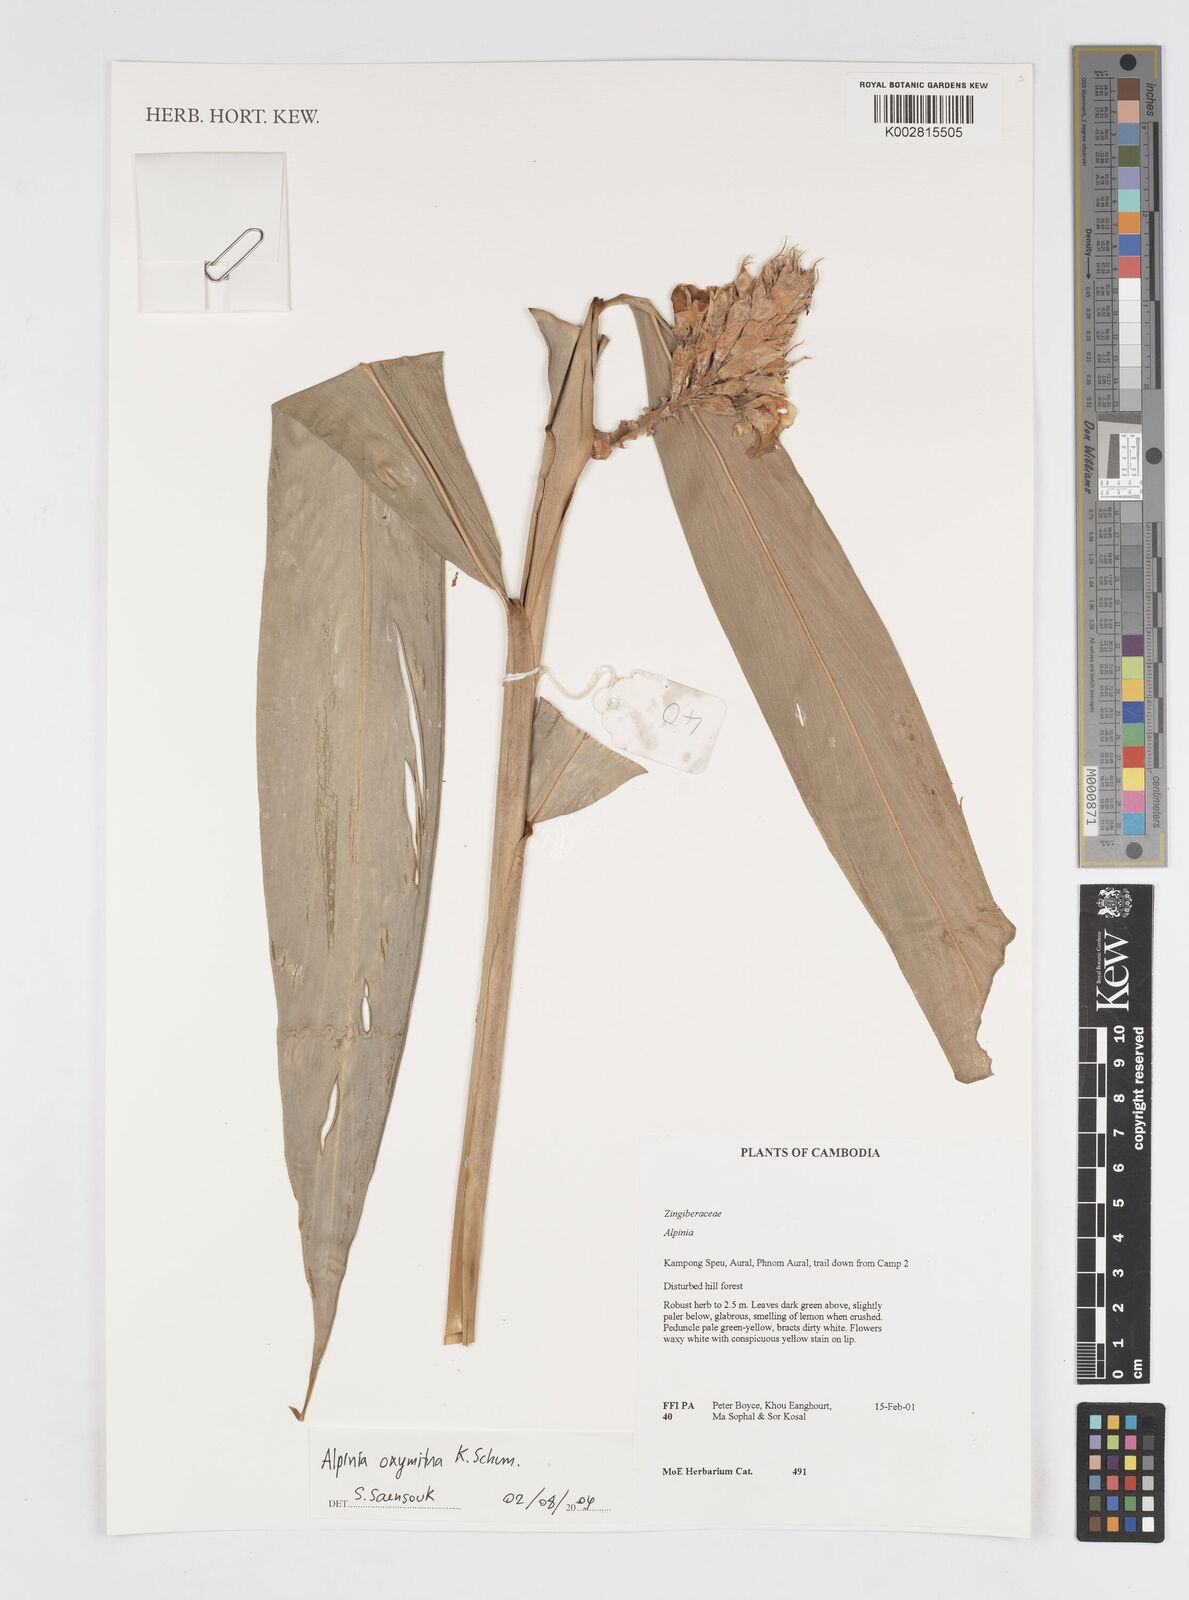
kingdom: Plantae
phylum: Tracheophyta
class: Liliopsida
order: Zingiberales
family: Zingiberaceae
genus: Alpinia
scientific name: Alpinia oxymitra
